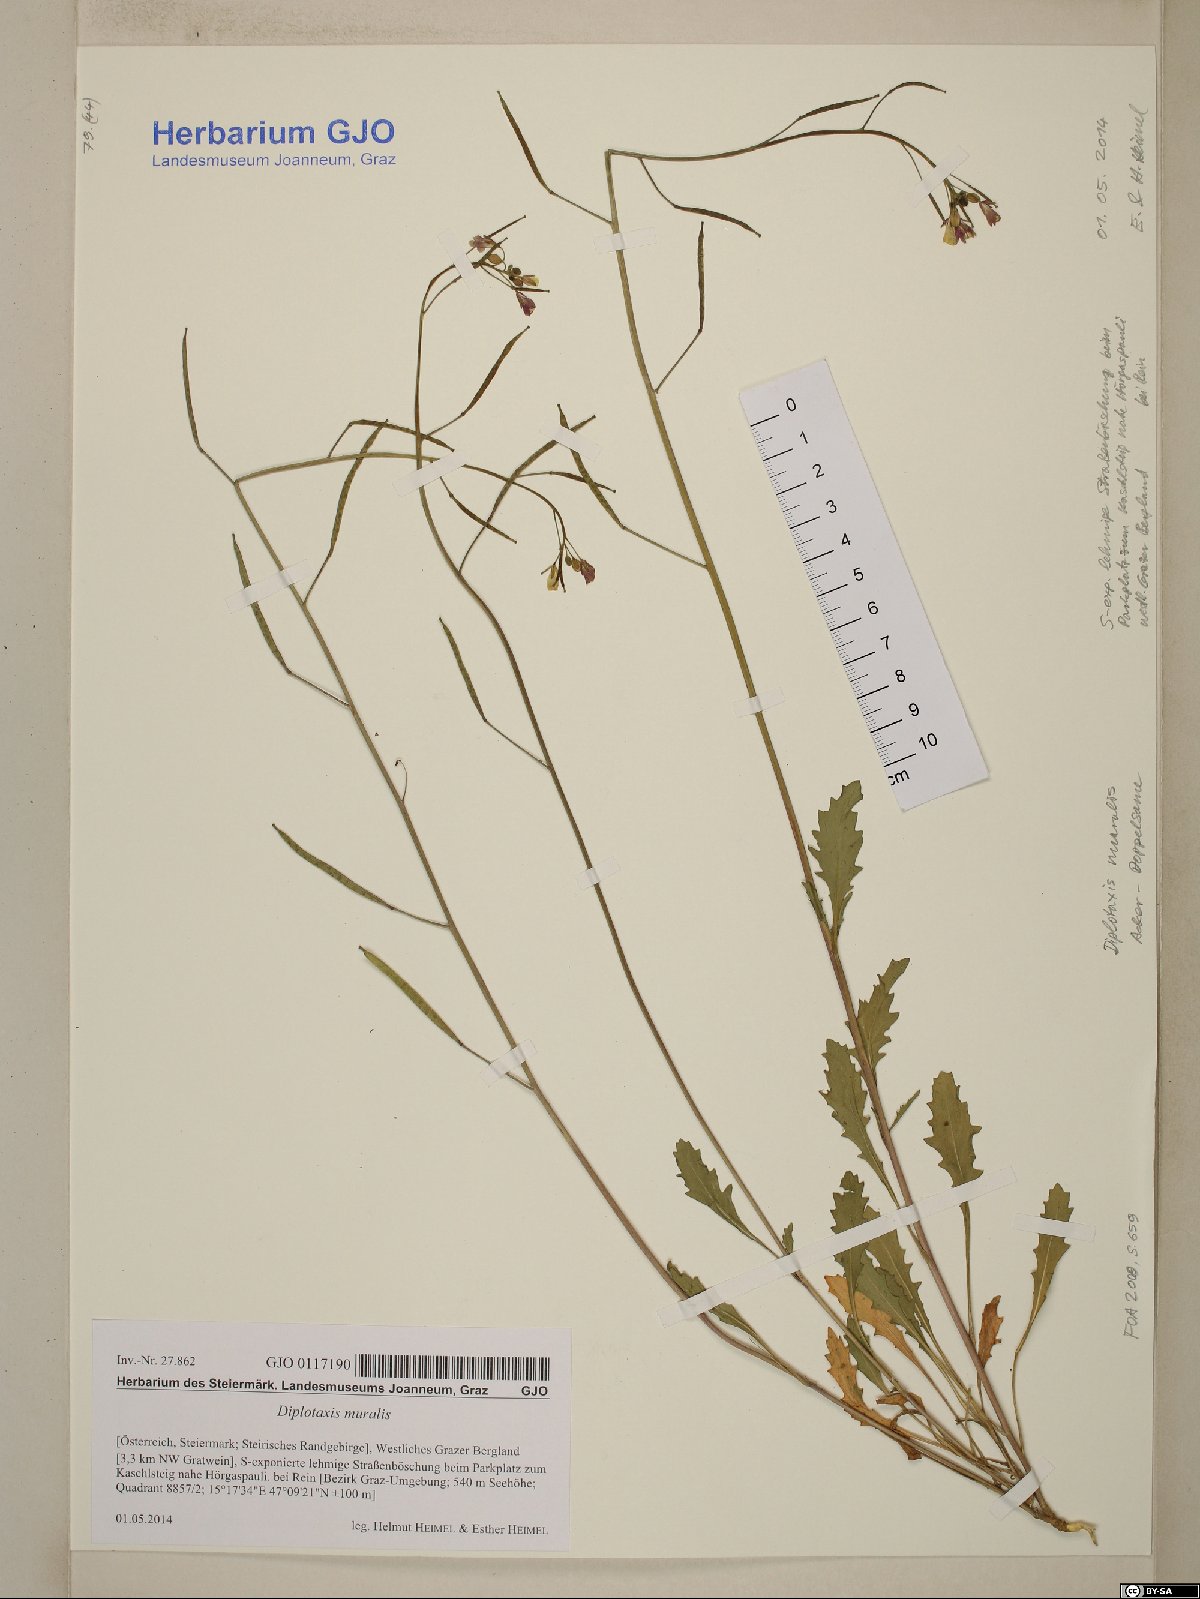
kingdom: Plantae
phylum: Tracheophyta
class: Magnoliopsida
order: Brassicales
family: Brassicaceae
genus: Diplotaxis
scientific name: Diplotaxis muralis
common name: Annual wall-rocket
